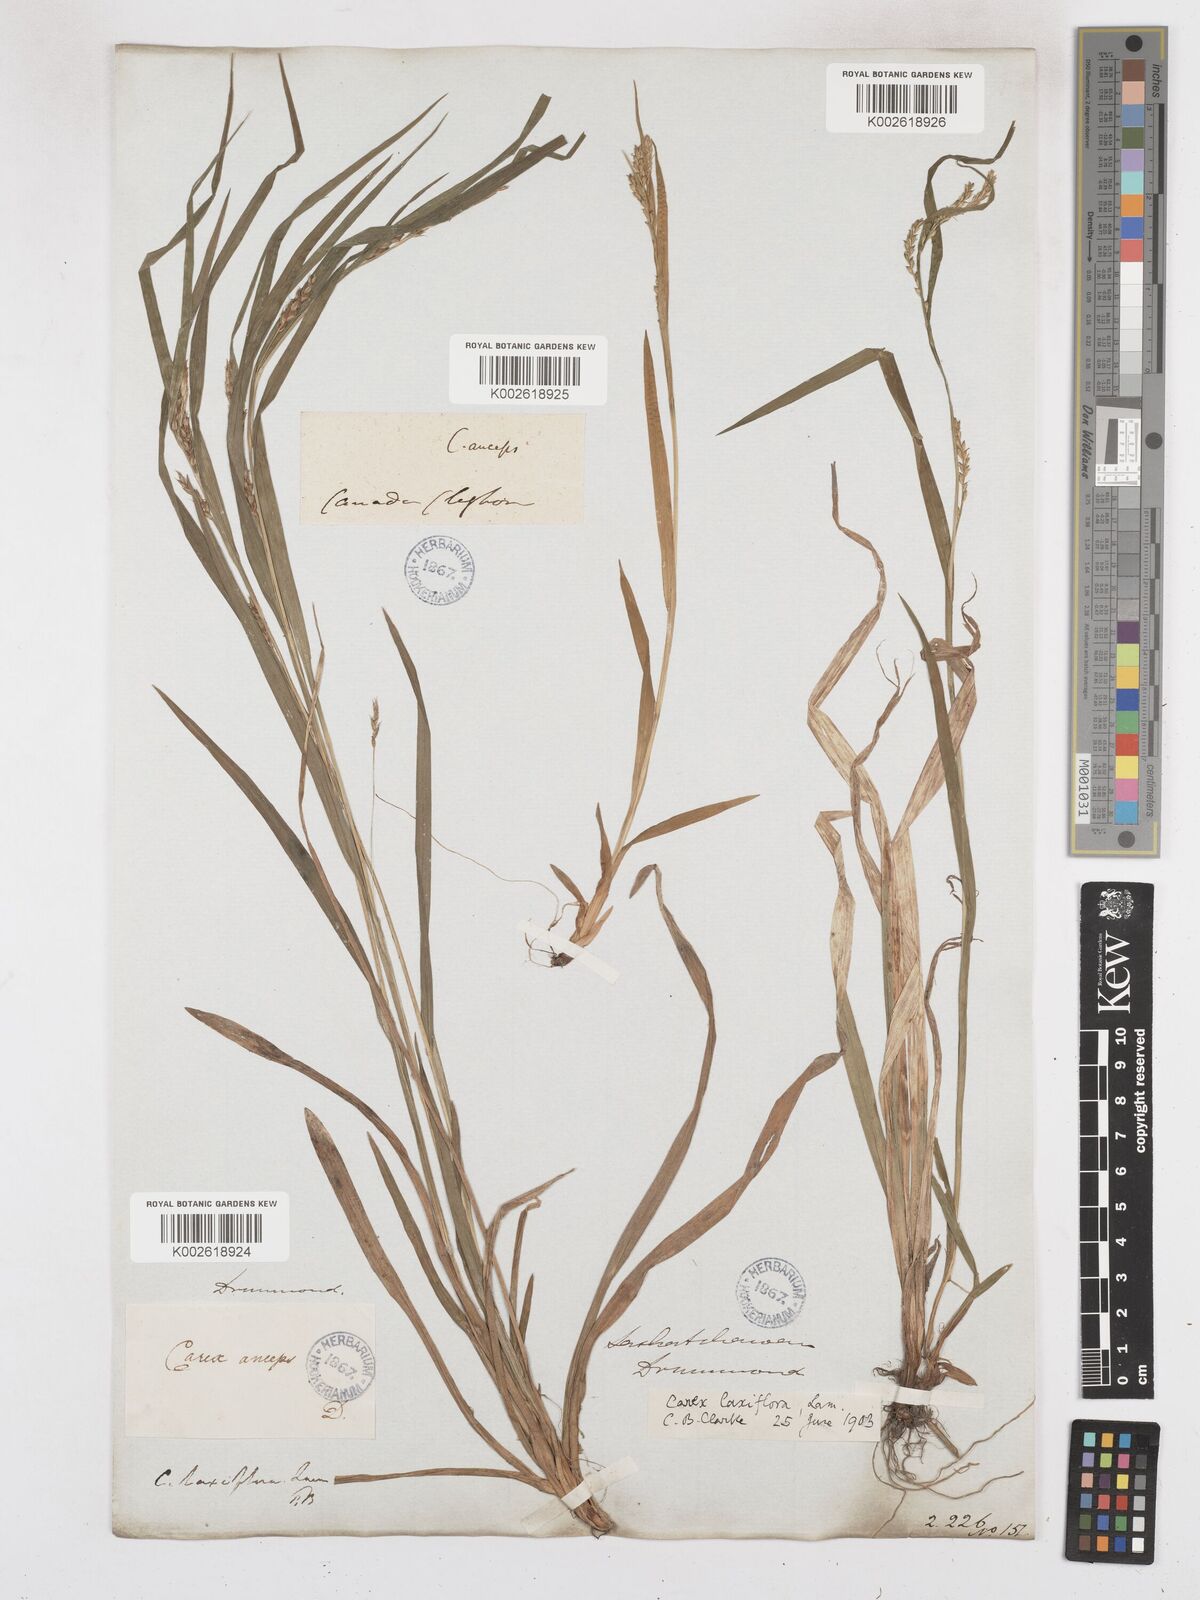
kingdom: Plantae
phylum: Tracheophyta
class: Liliopsida
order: Poales
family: Cyperaceae
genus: Carex
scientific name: Carex laxiflora
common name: Beech wood sedge
